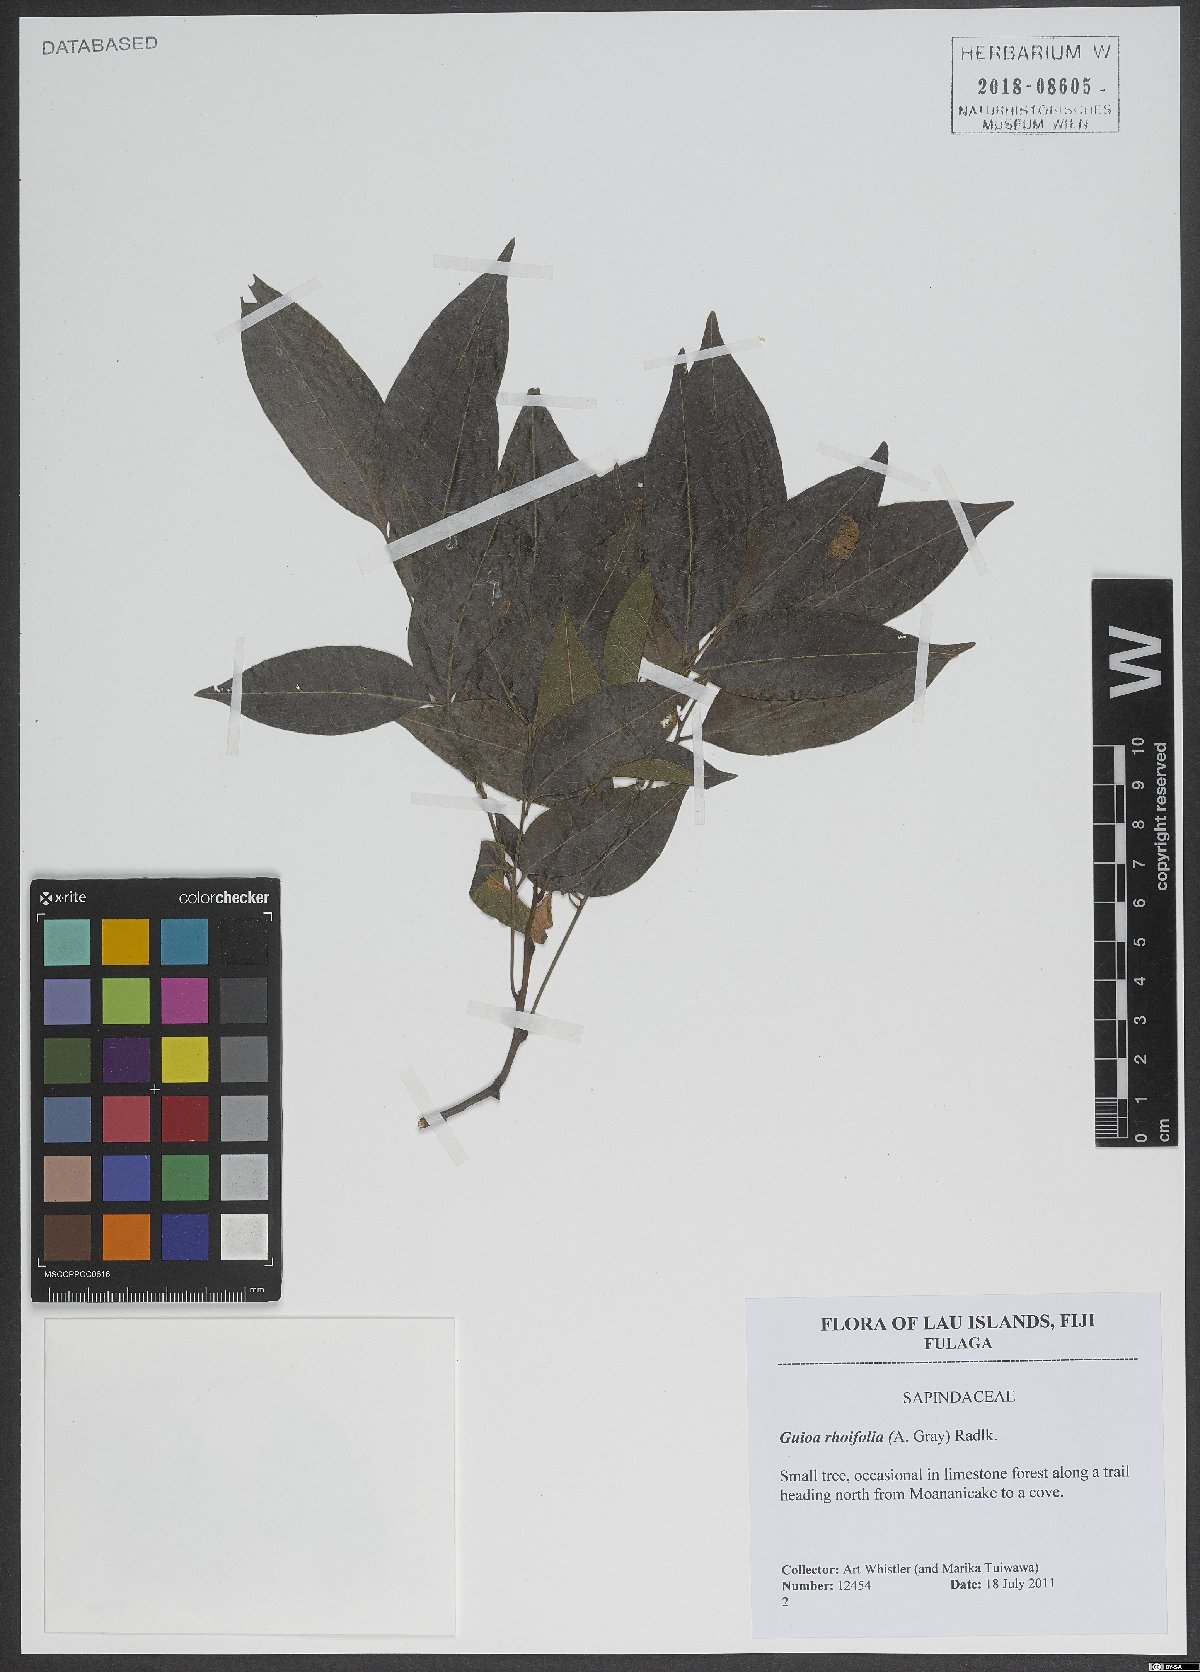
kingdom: Plantae
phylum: Tracheophyta
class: Magnoliopsida
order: Sapindales
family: Sapindaceae
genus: Guioa
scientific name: Guioa rhoifolia
